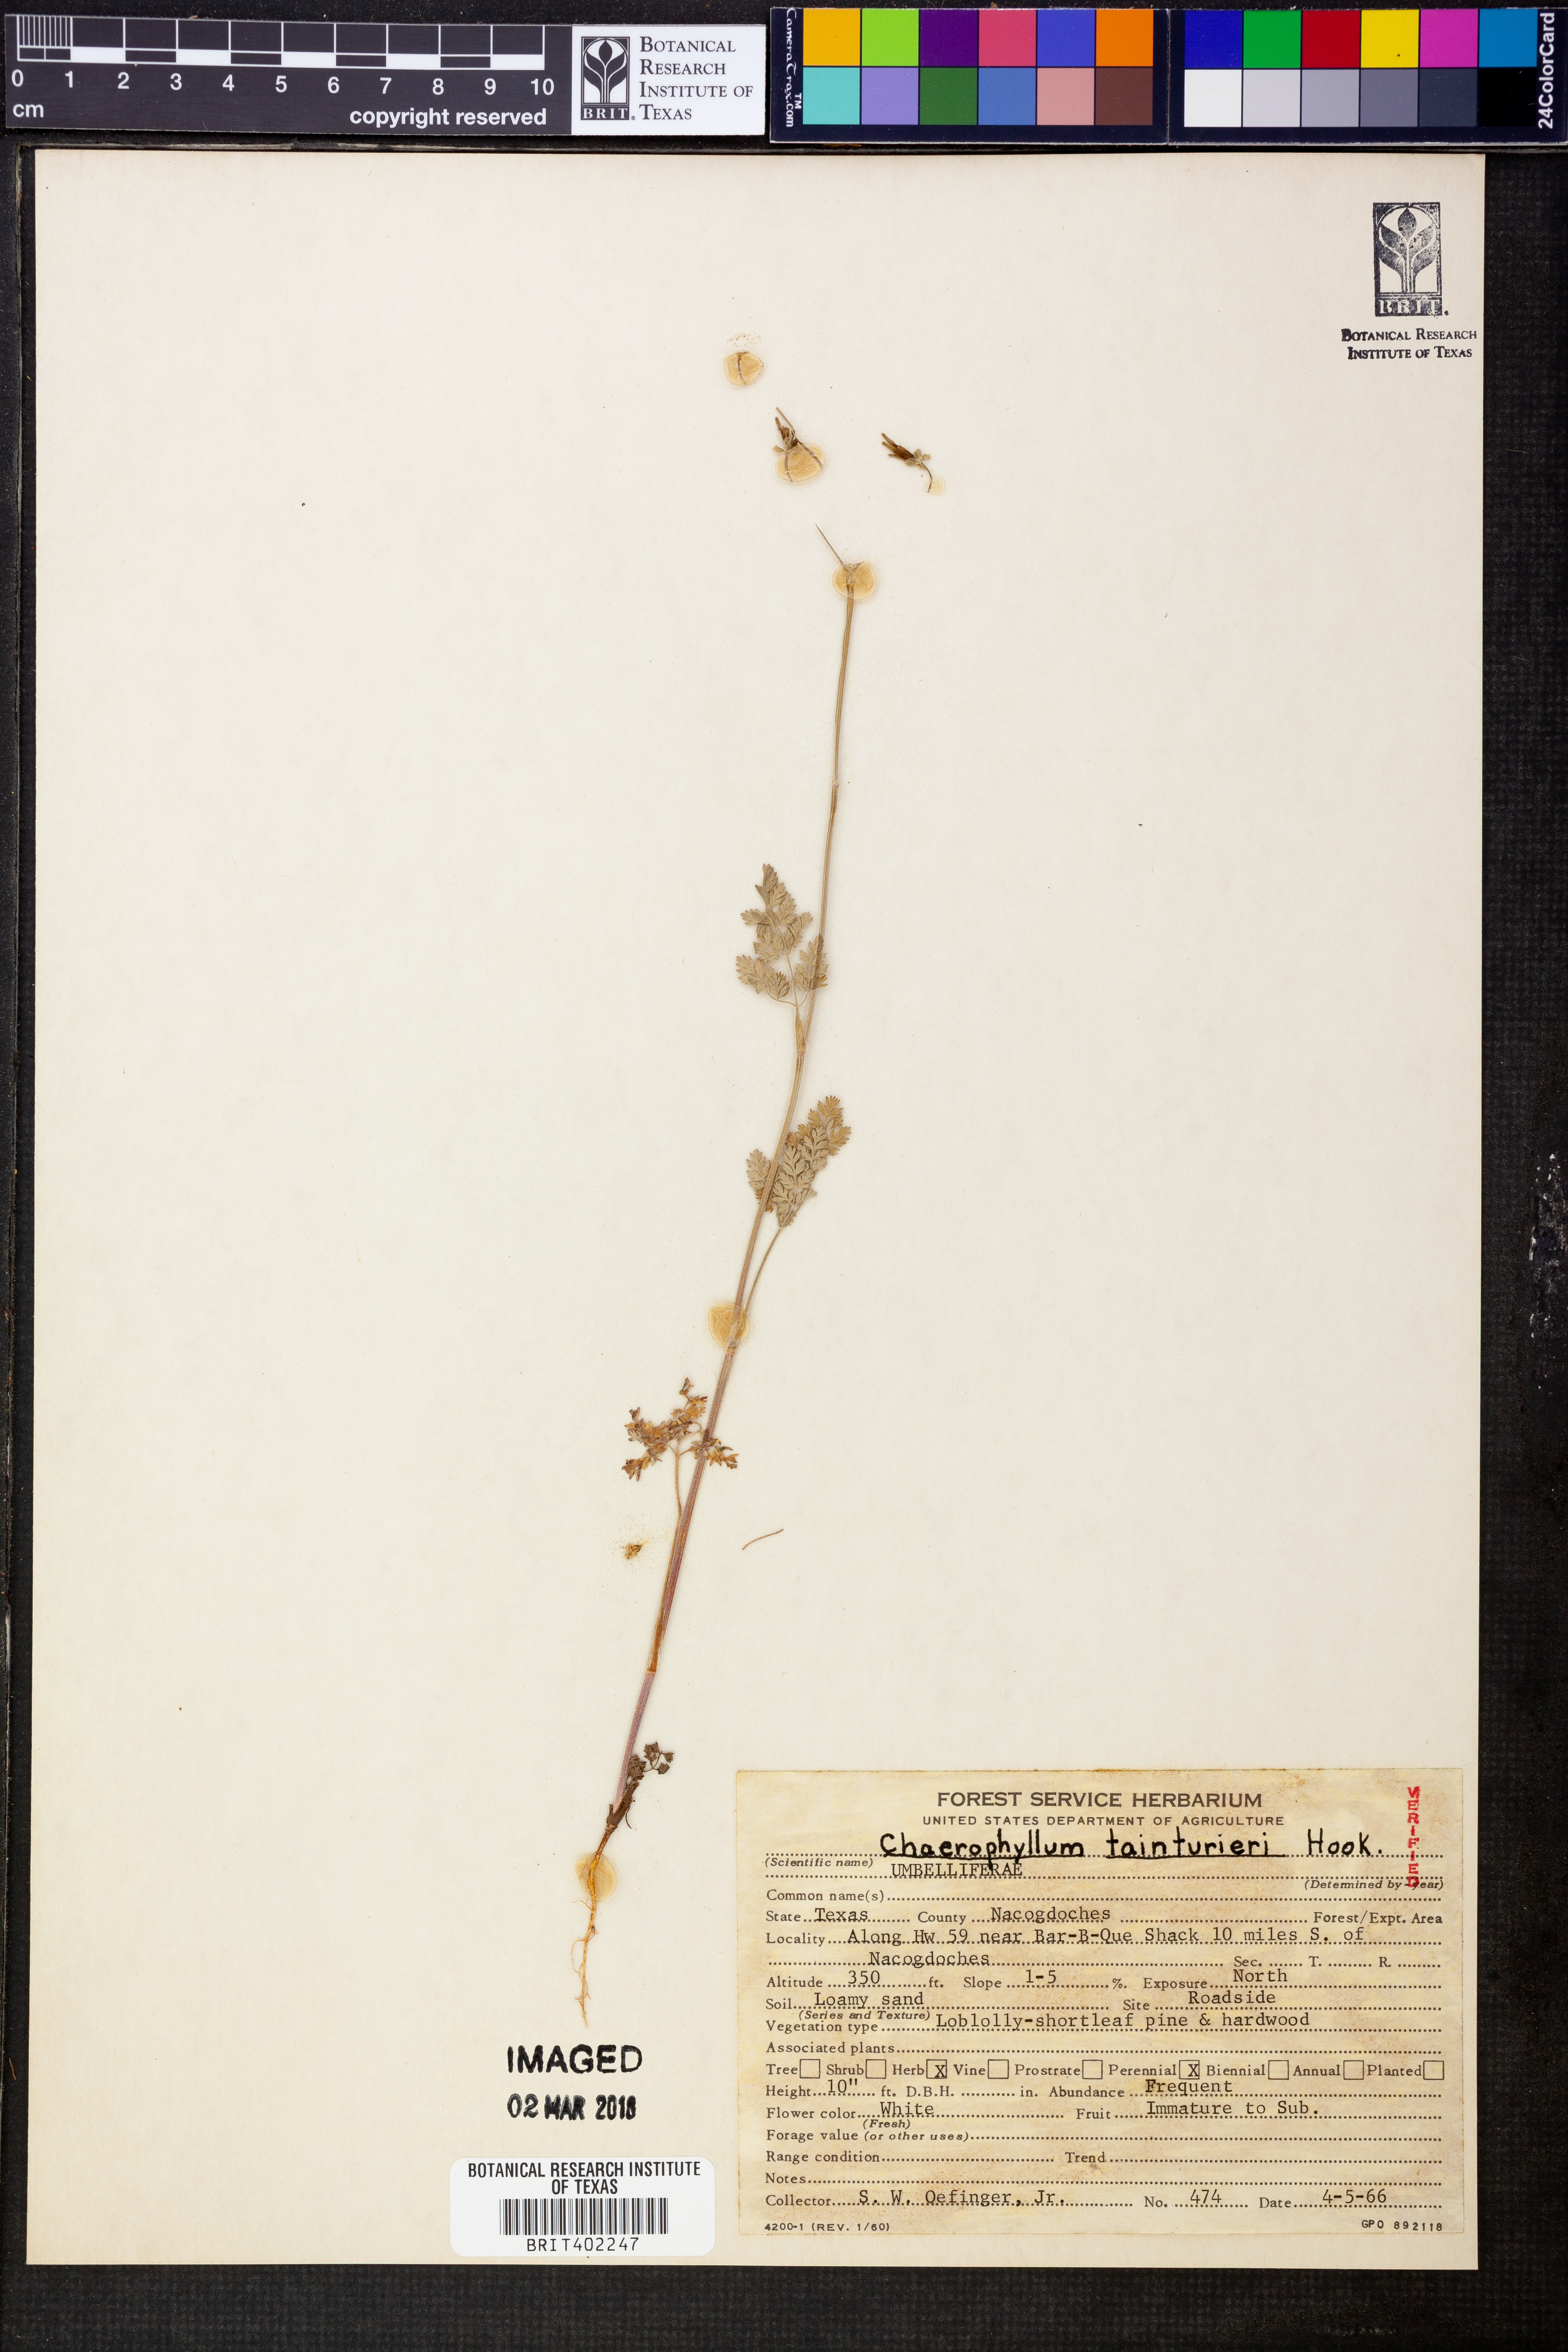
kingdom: Plantae
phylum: Tracheophyta
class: Magnoliopsida
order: Apiales
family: Apiaceae
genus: Chaerophyllum
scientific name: Chaerophyllum tainturieri
